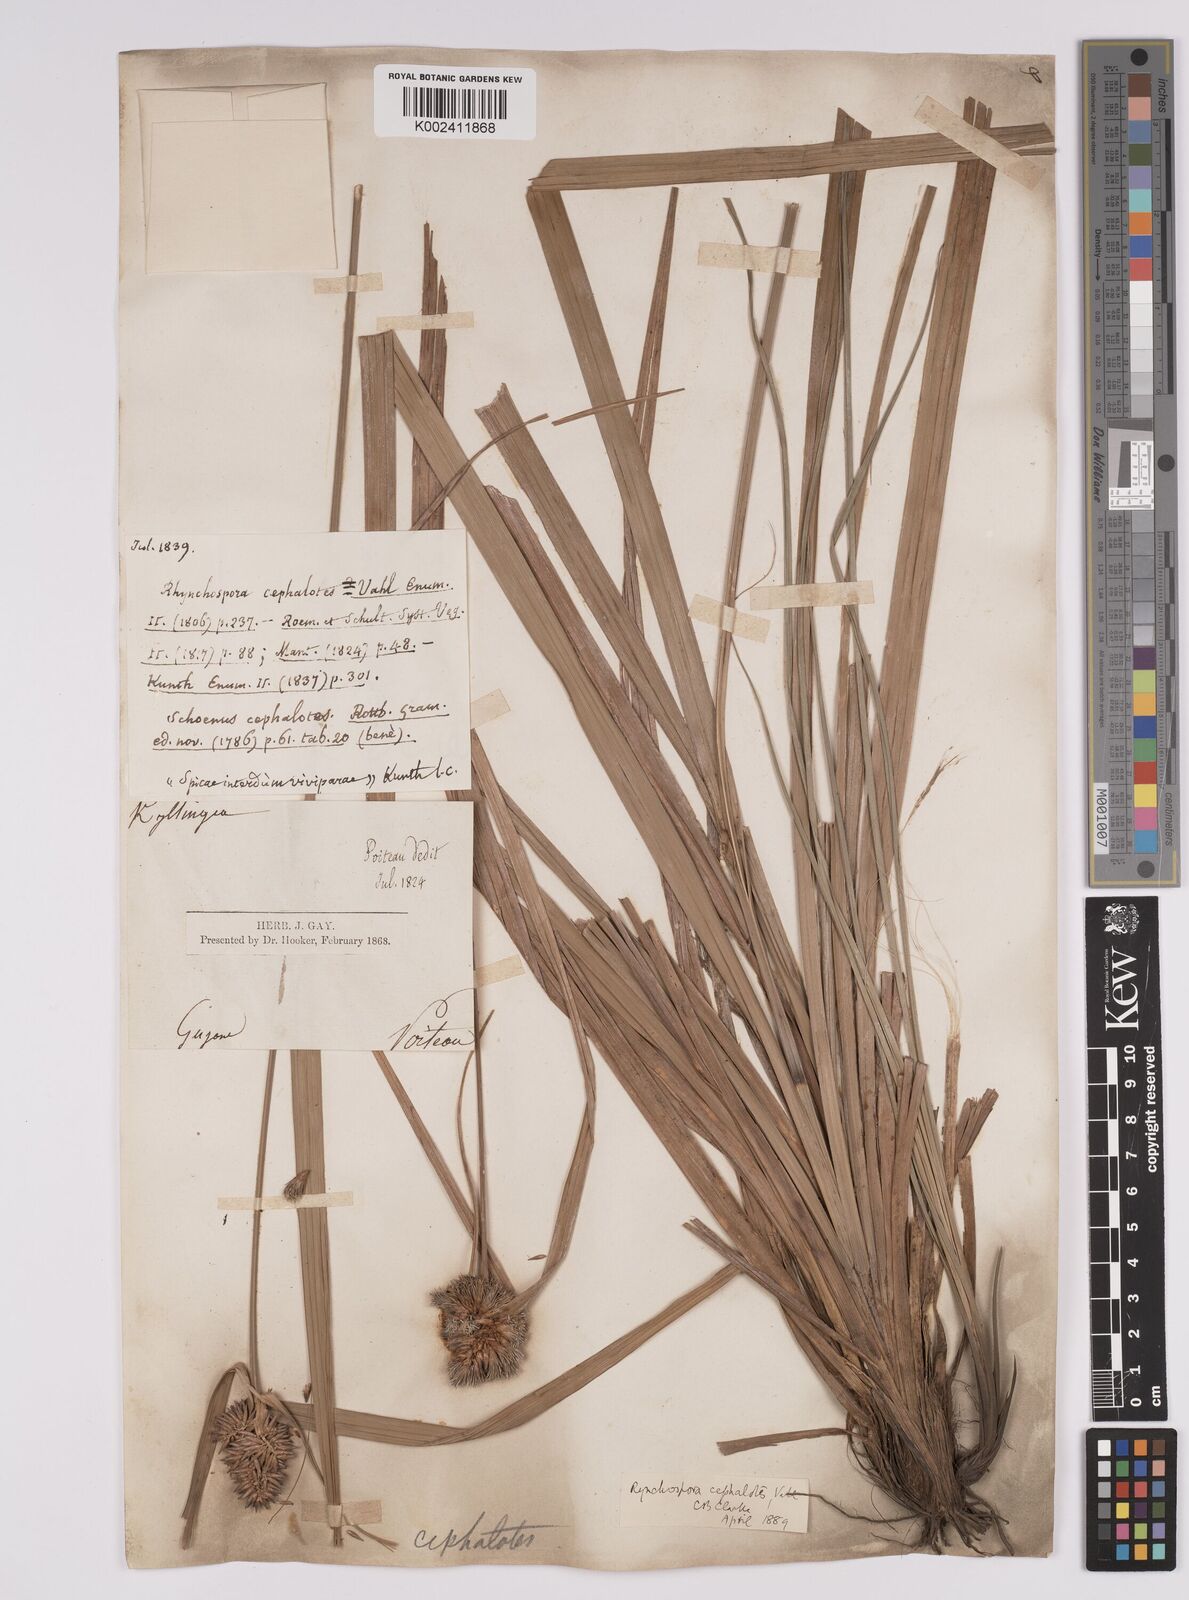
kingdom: Plantae
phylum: Tracheophyta
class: Liliopsida
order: Poales
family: Cyperaceae
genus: Rhynchospora
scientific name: Rhynchospora cephalotes
